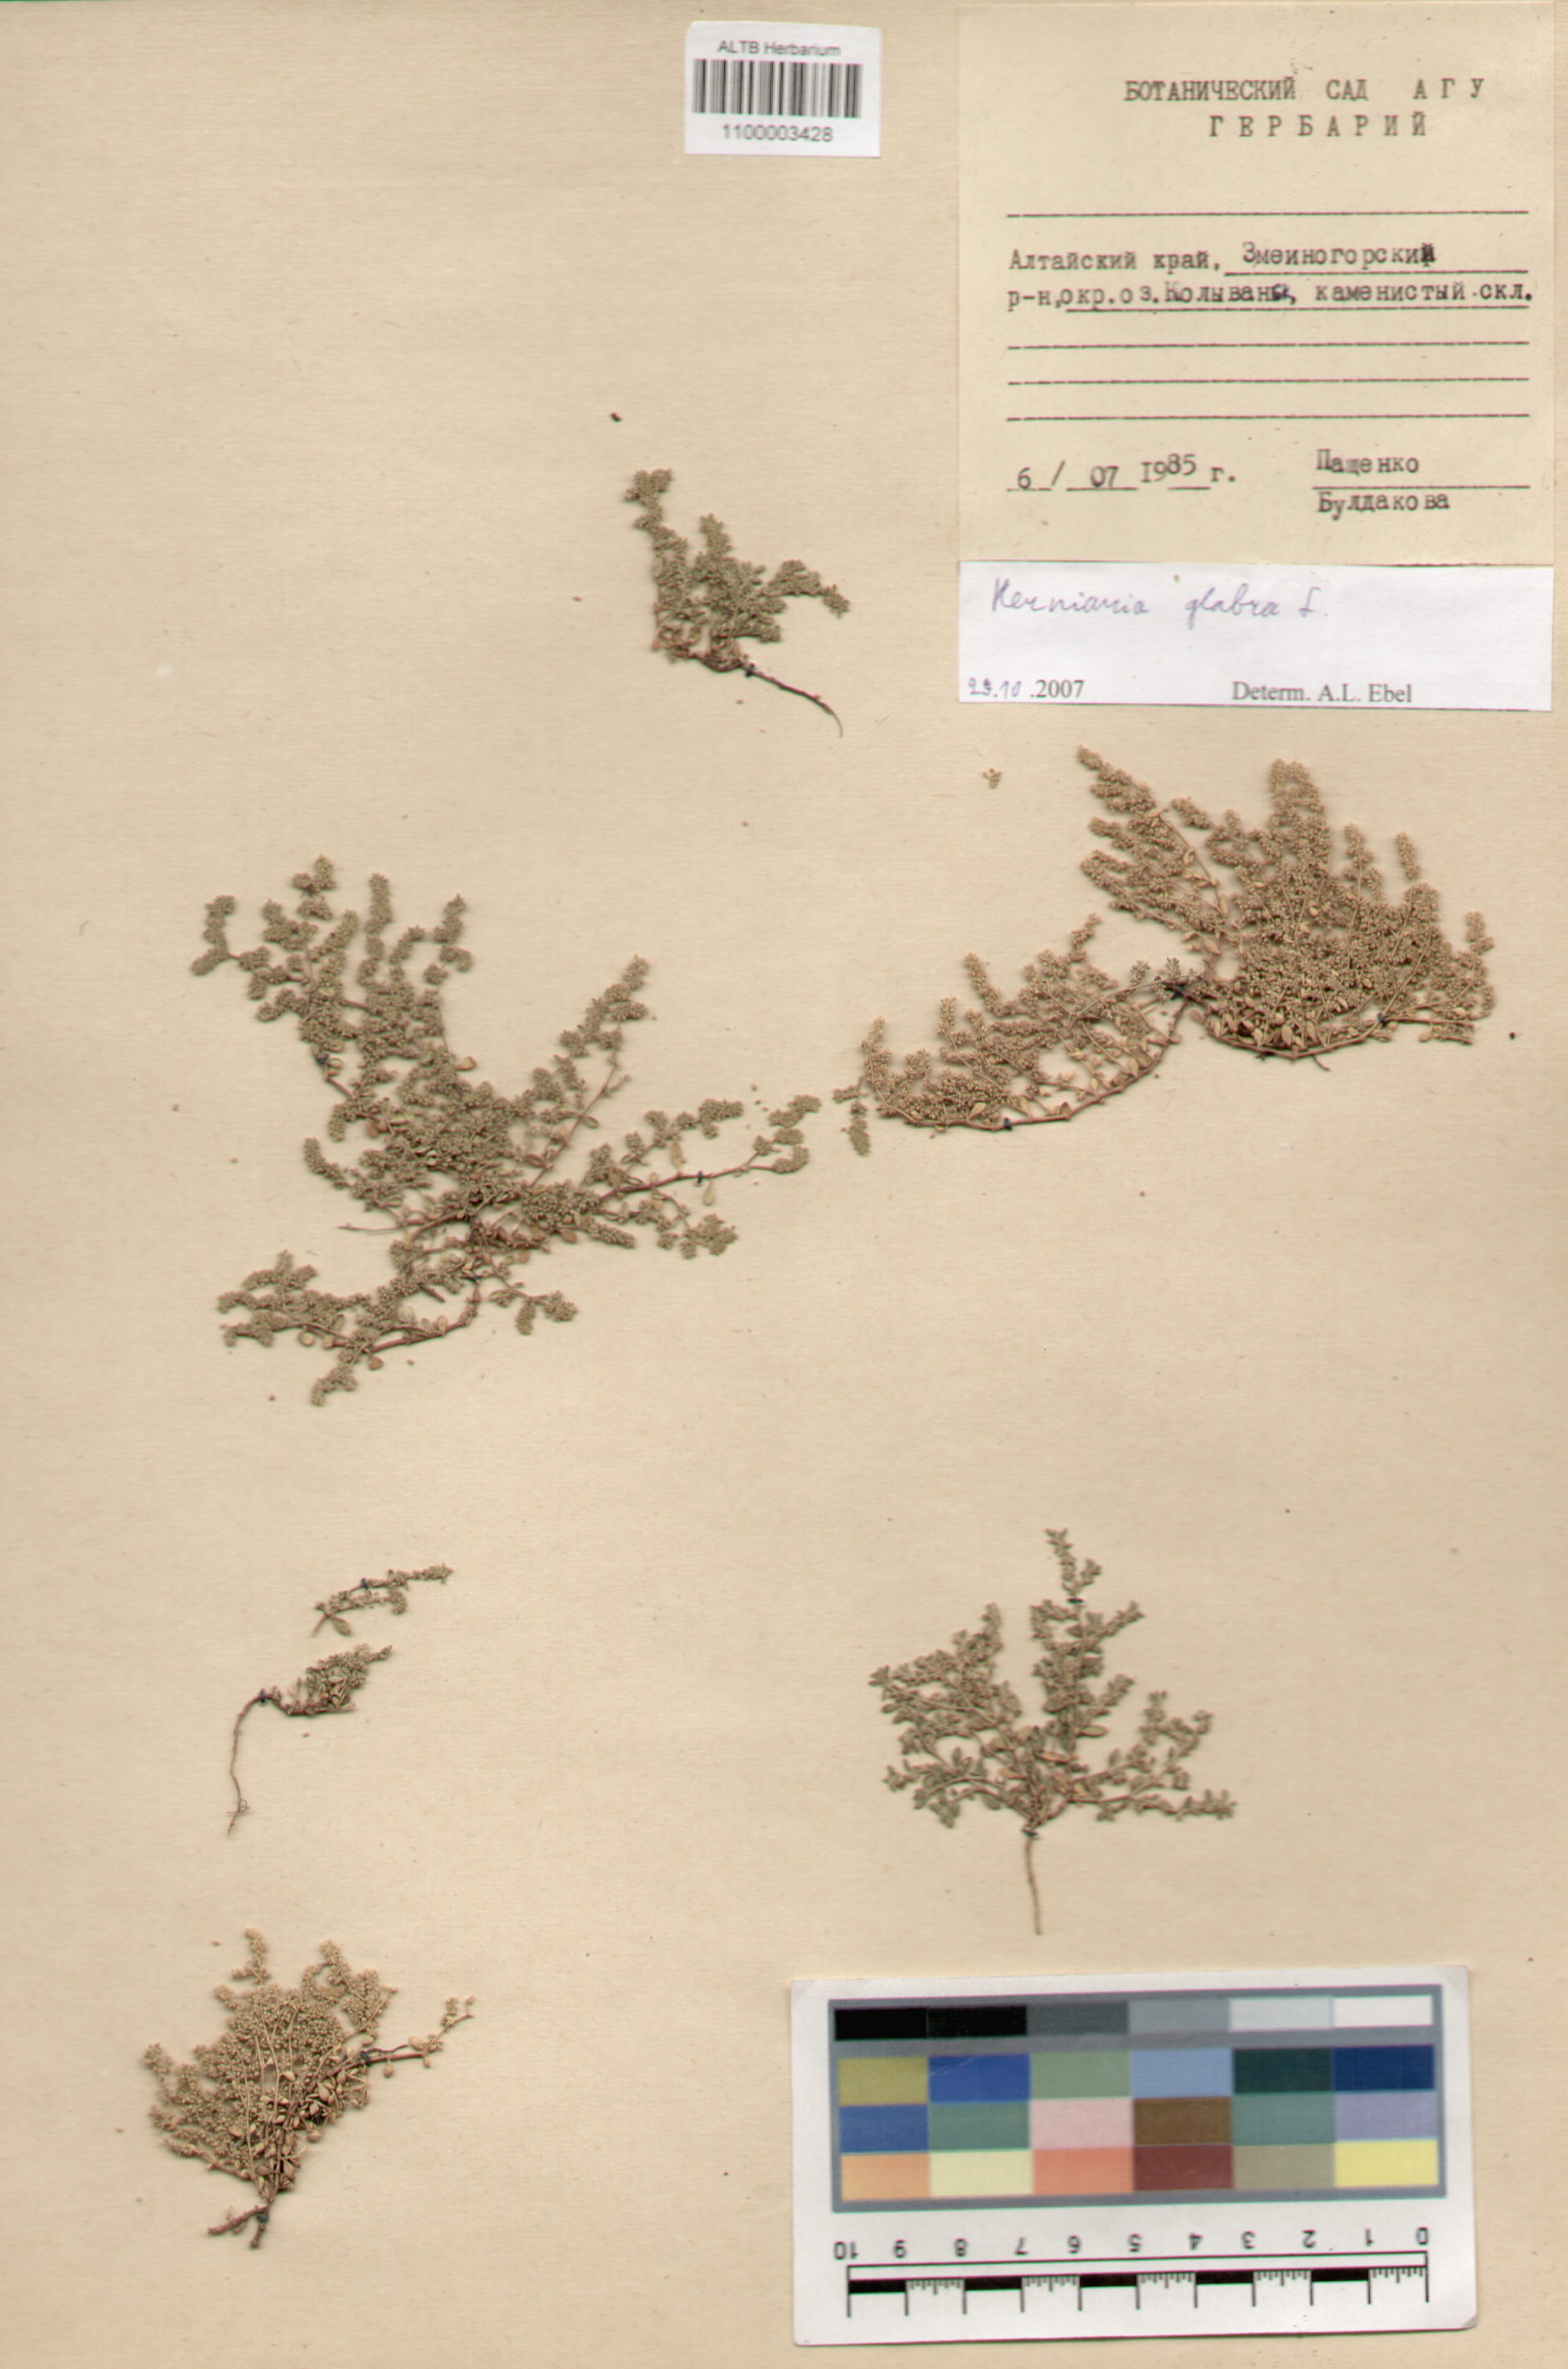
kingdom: Plantae
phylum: Tracheophyta
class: Magnoliopsida
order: Caryophyllales
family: Caryophyllaceae
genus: Herniaria
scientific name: Herniaria glabra
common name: Smooth rupturewort
